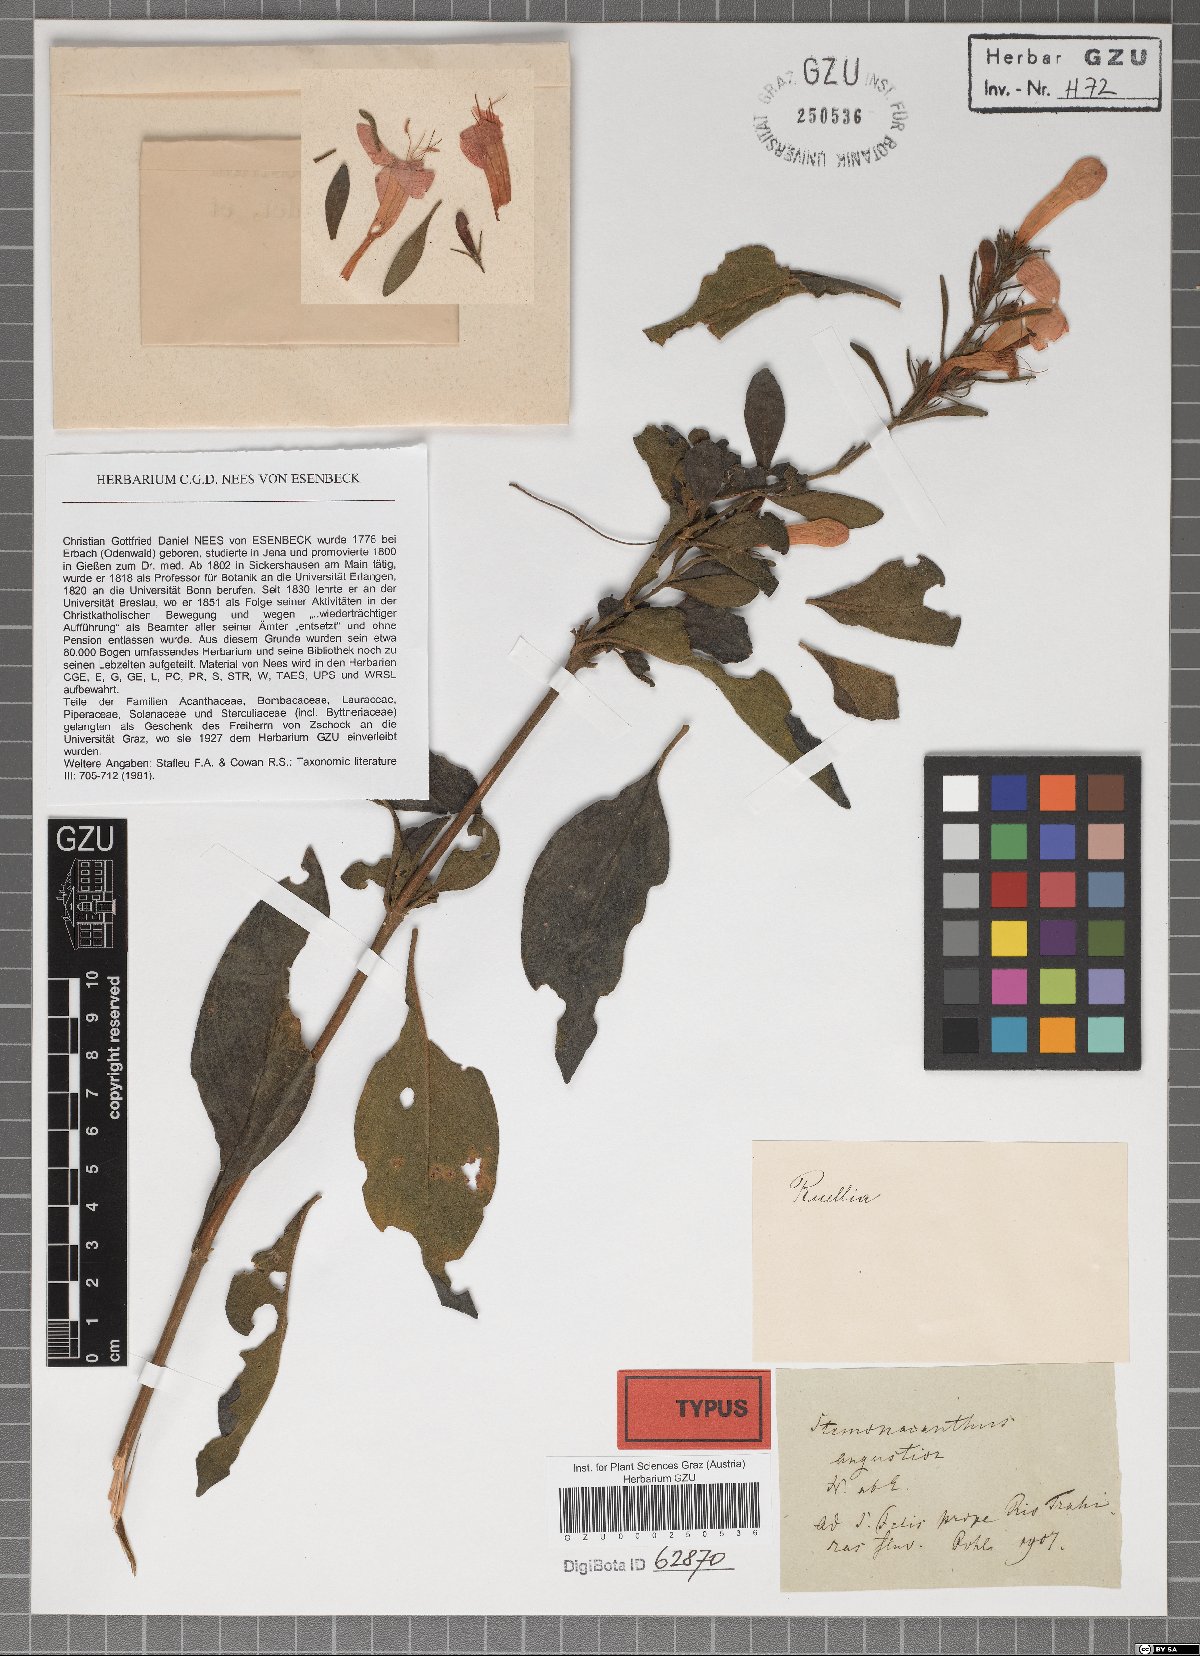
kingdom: Plantae
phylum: Tracheophyta
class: Magnoliopsida
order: Lamiales
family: Acanthaceae
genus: Ruellia
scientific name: Ruellia angustior
